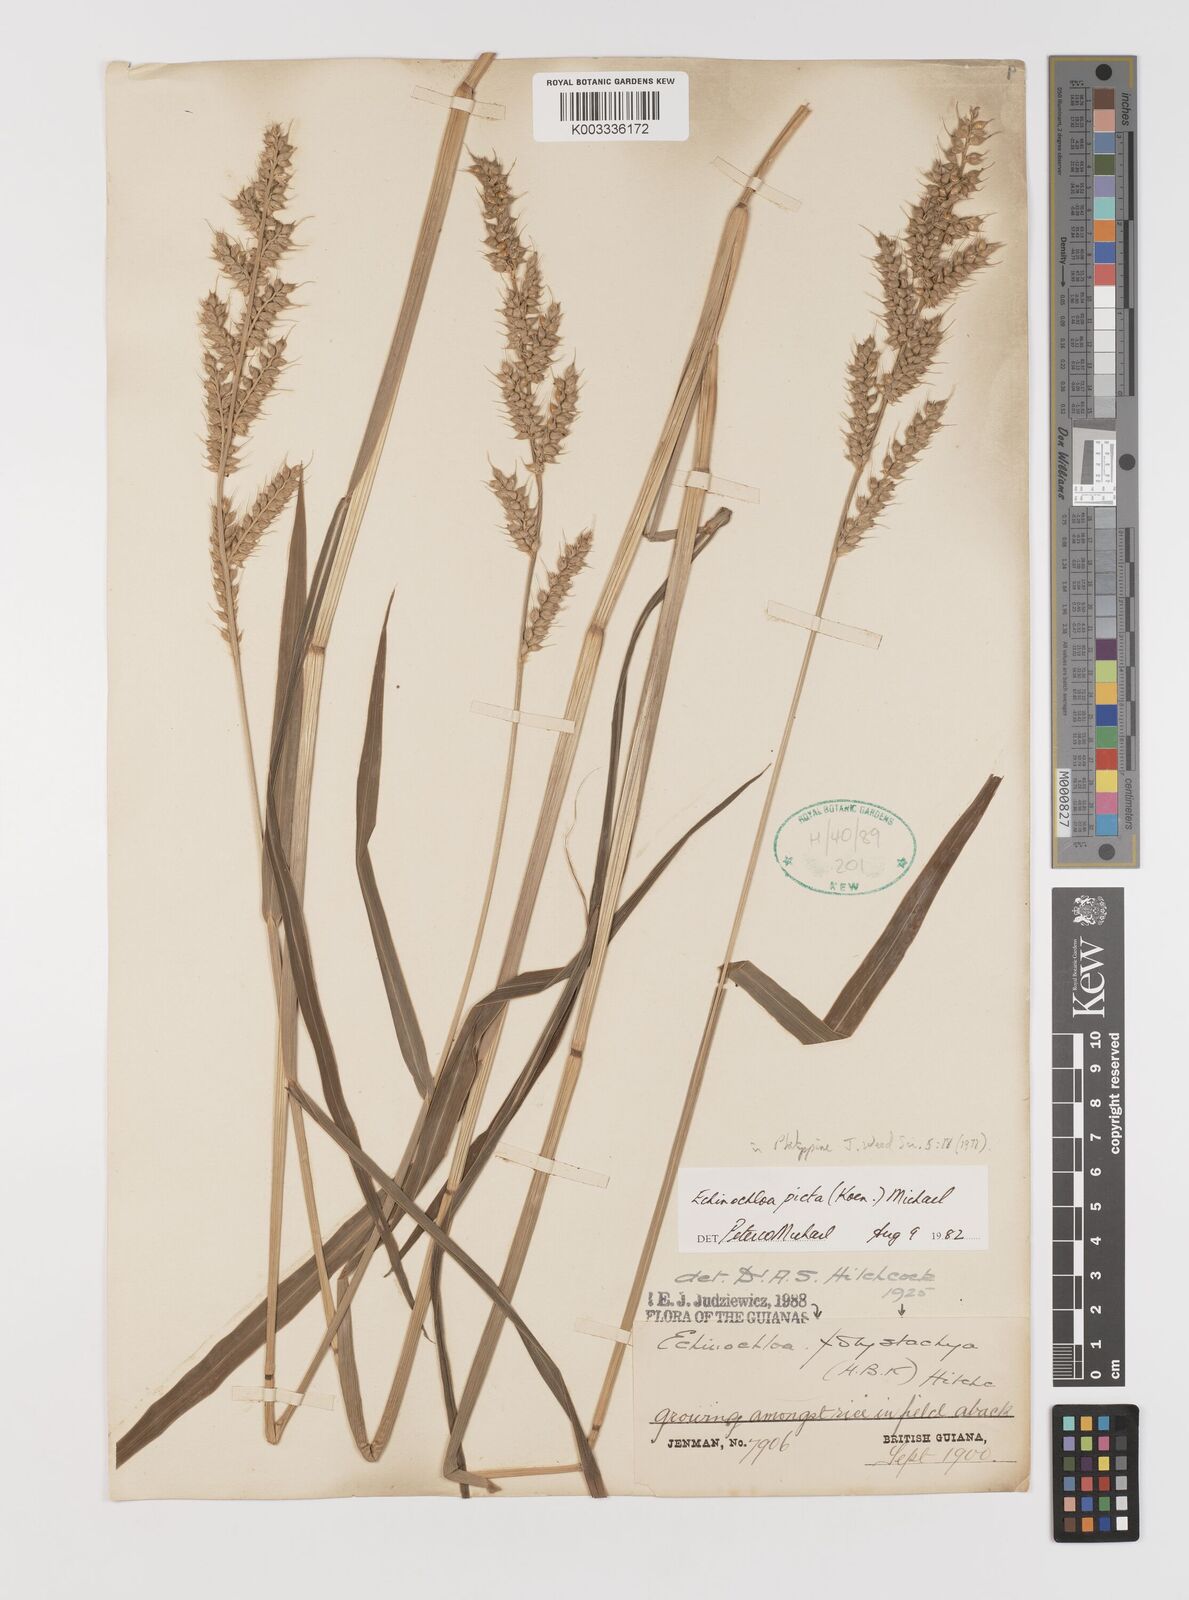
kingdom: Plantae
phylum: Tracheophyta
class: Liliopsida
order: Poales
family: Poaceae
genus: Pseudechinolaena
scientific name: Pseudechinolaena polystachya
